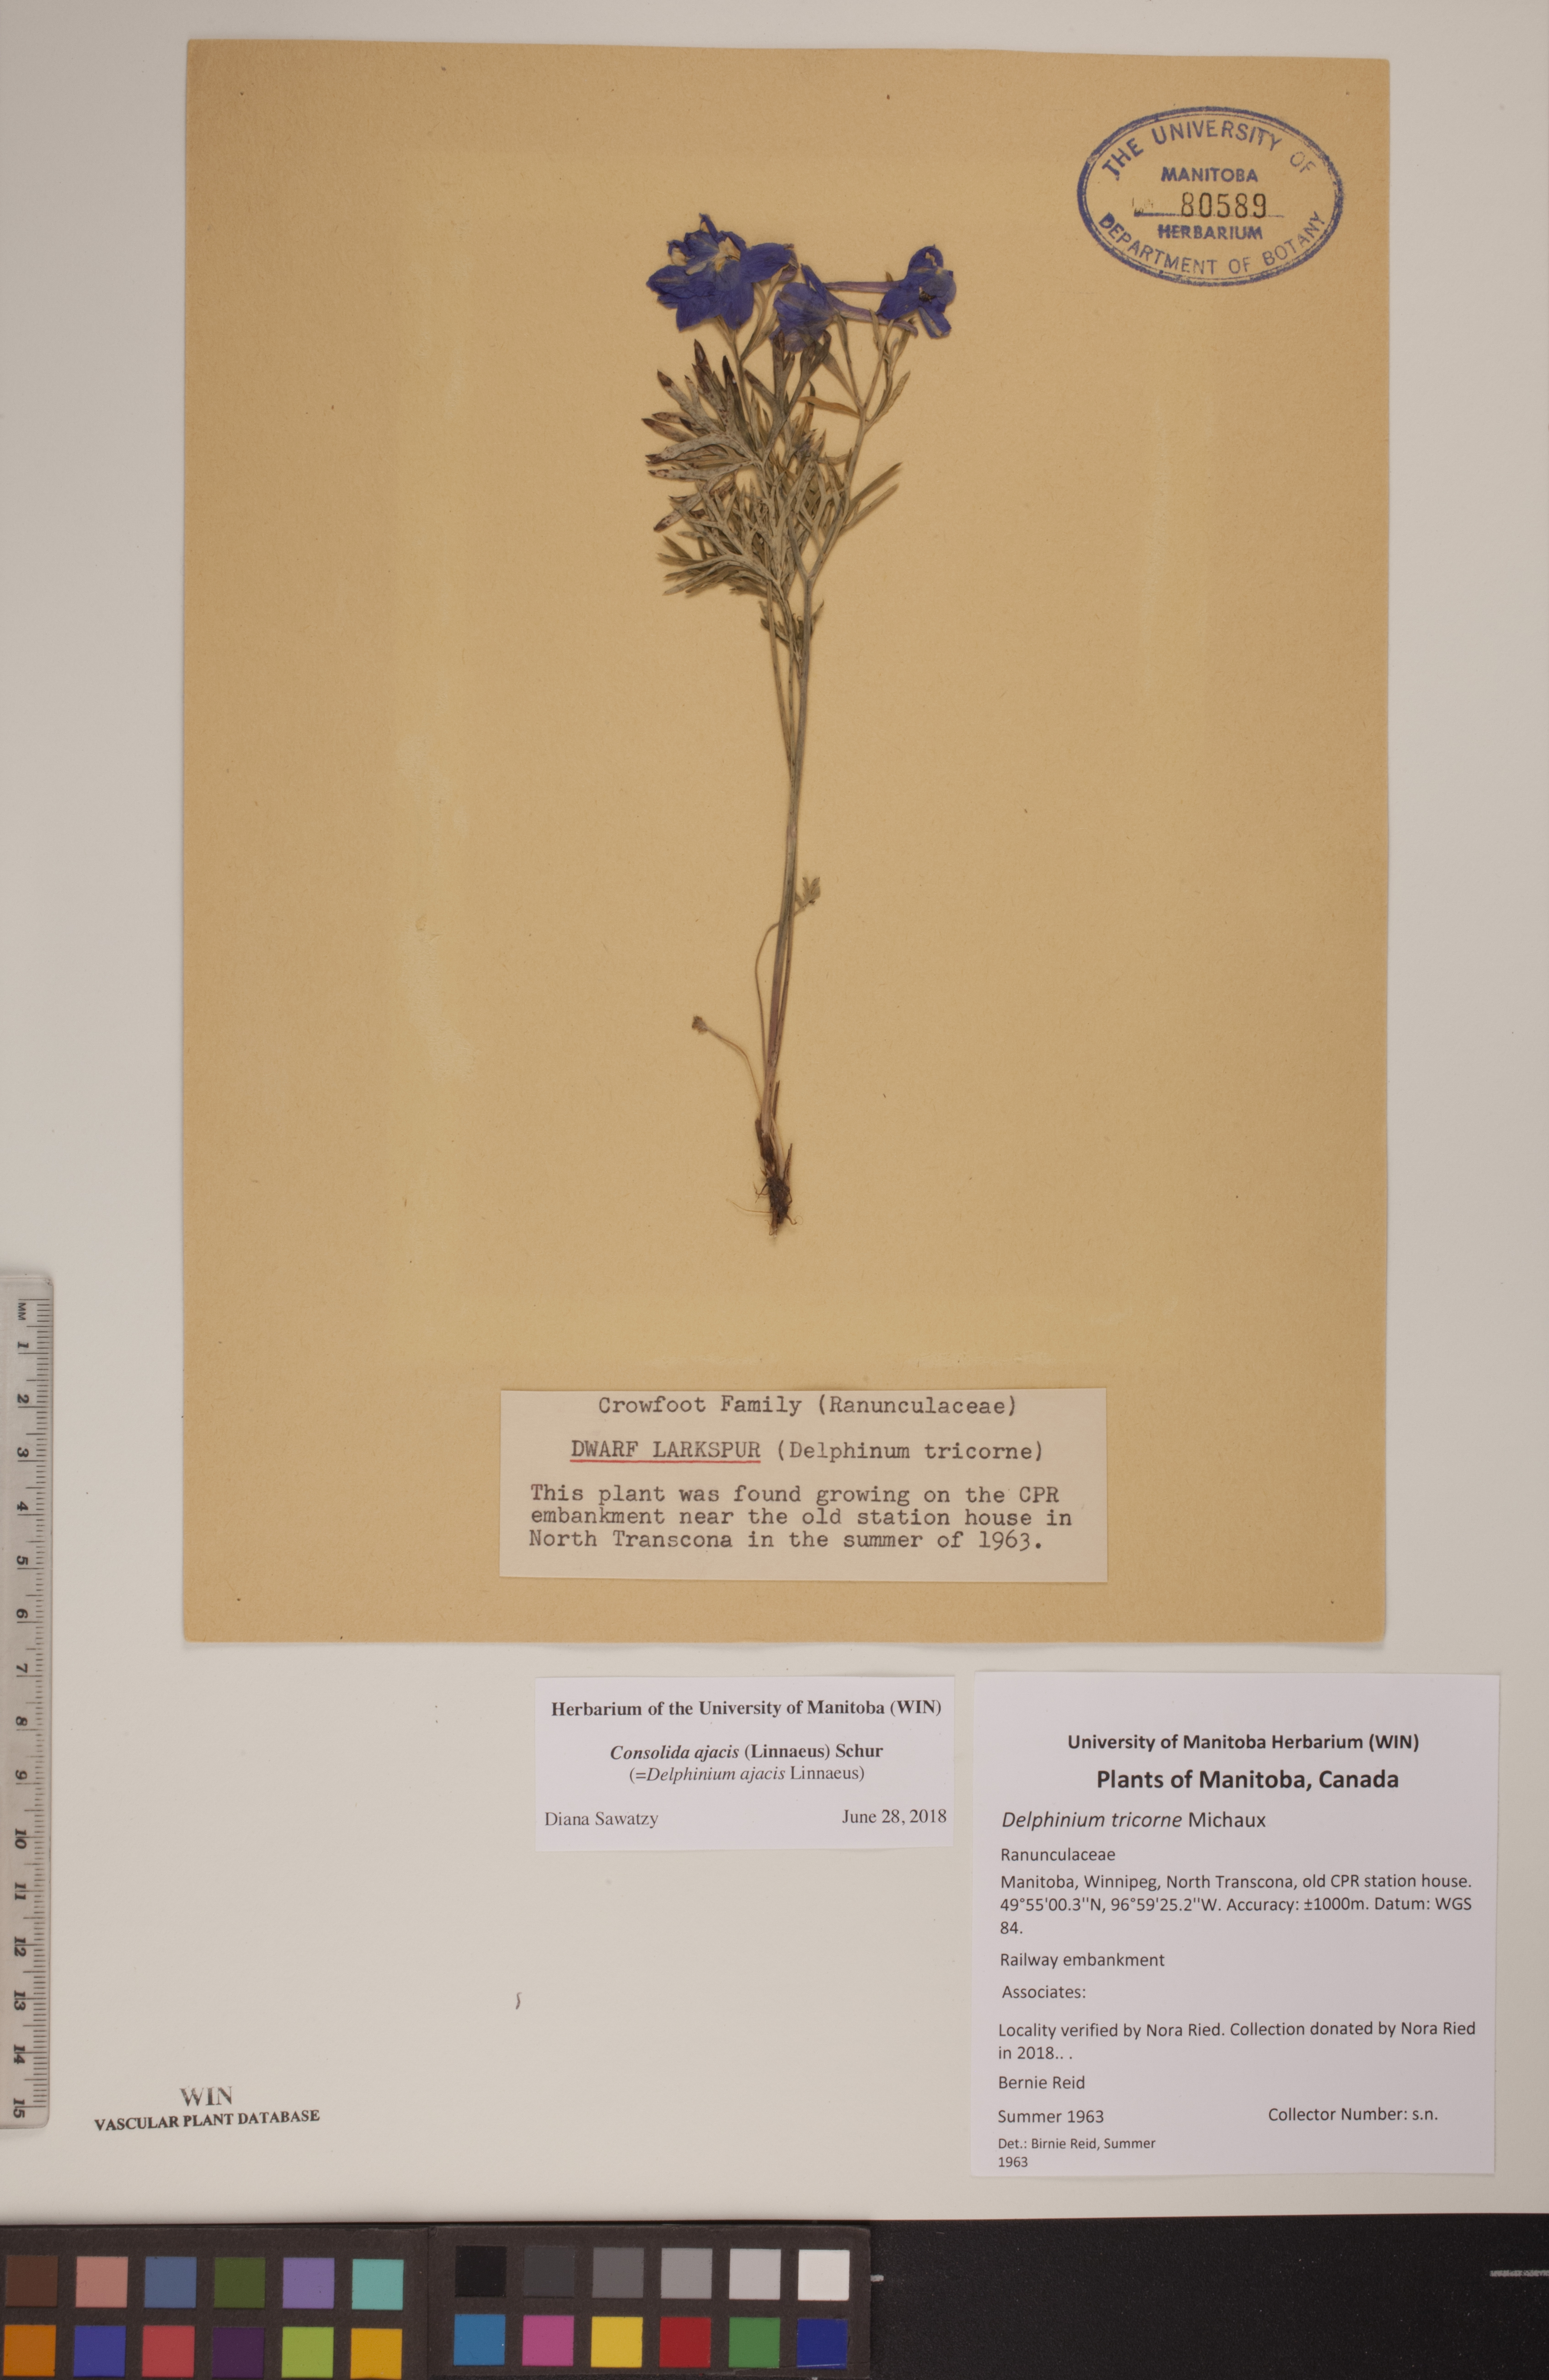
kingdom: Plantae
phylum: Tracheophyta
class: Magnoliopsida
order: Ranunculales
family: Ranunculaceae
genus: Delphinium
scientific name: Delphinium ajacis
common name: Doubtful knight's-spur
